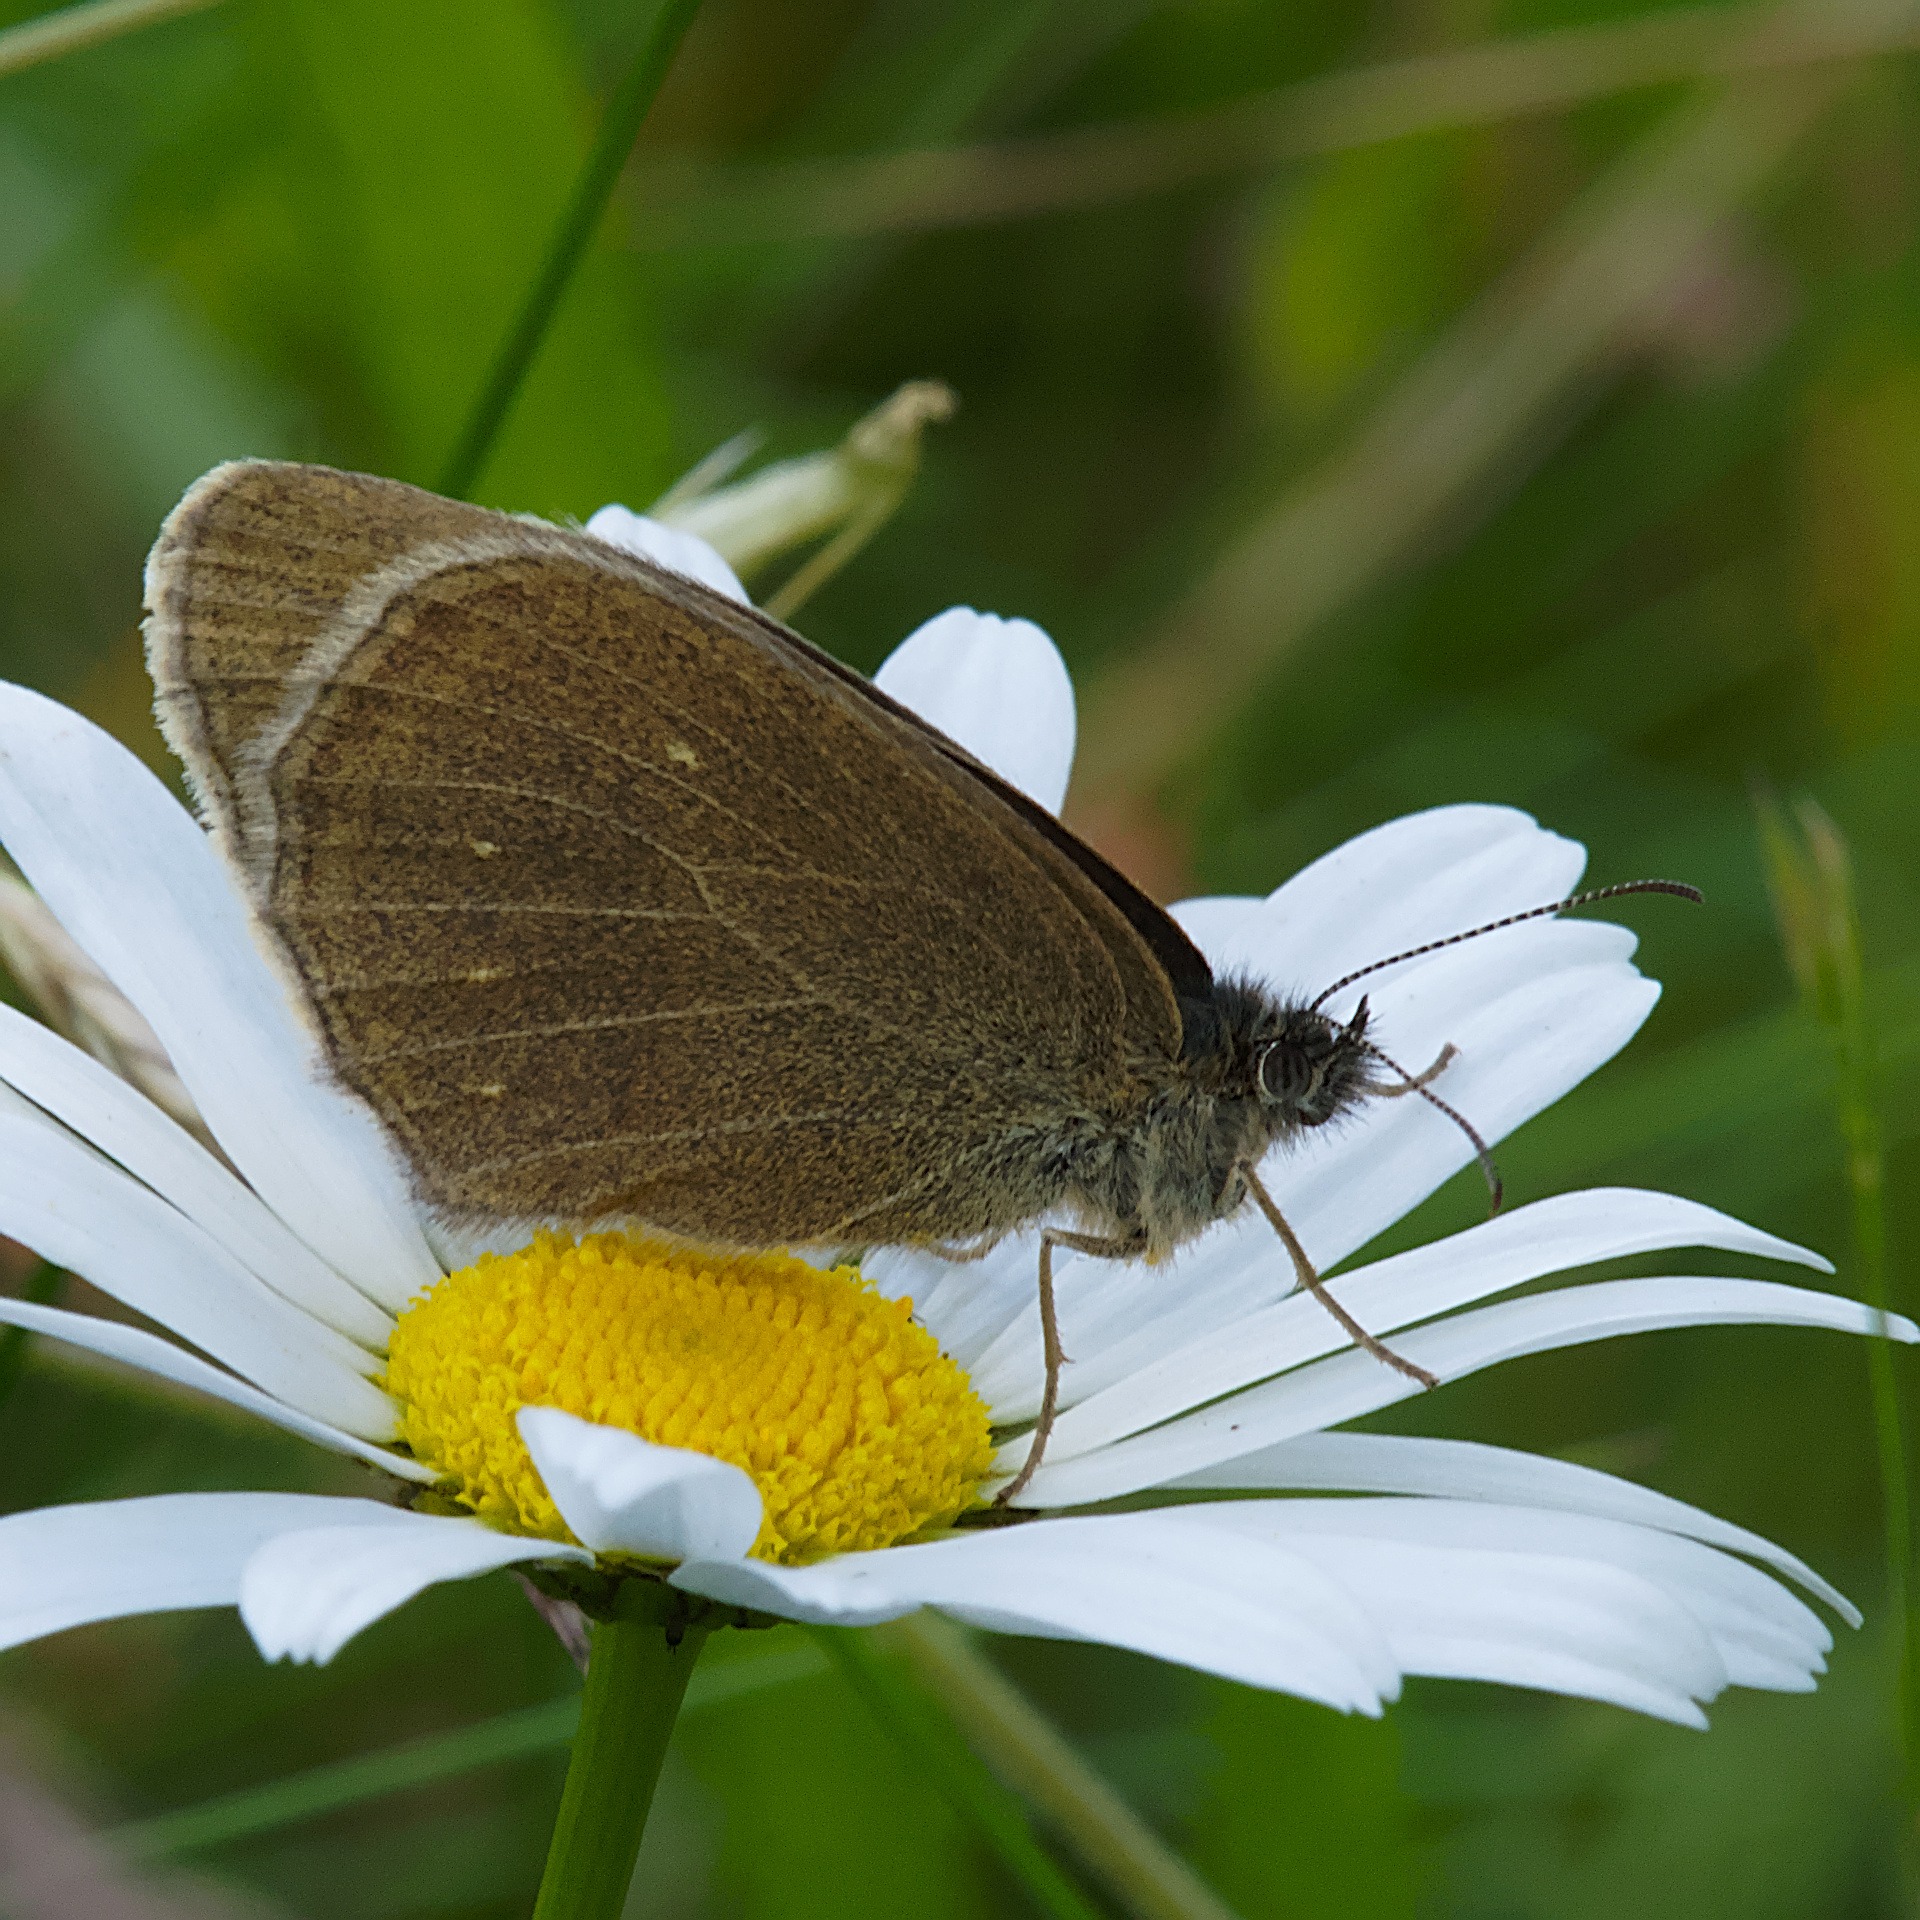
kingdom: Animalia
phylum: Arthropoda
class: Insecta
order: Lepidoptera
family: Nymphalidae
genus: Aphantopus
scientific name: Aphantopus hyperantus
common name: Engrandøje
